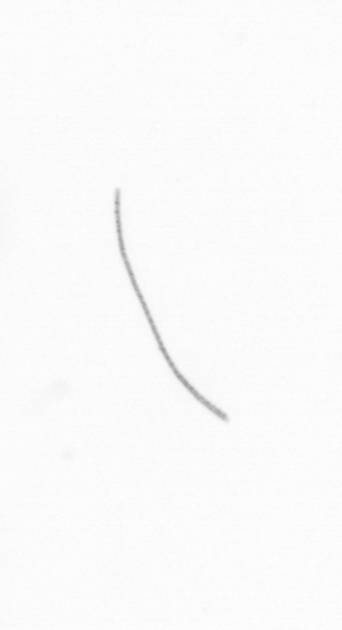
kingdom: Animalia
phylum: Arthropoda
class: Copepoda
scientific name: Copepoda
